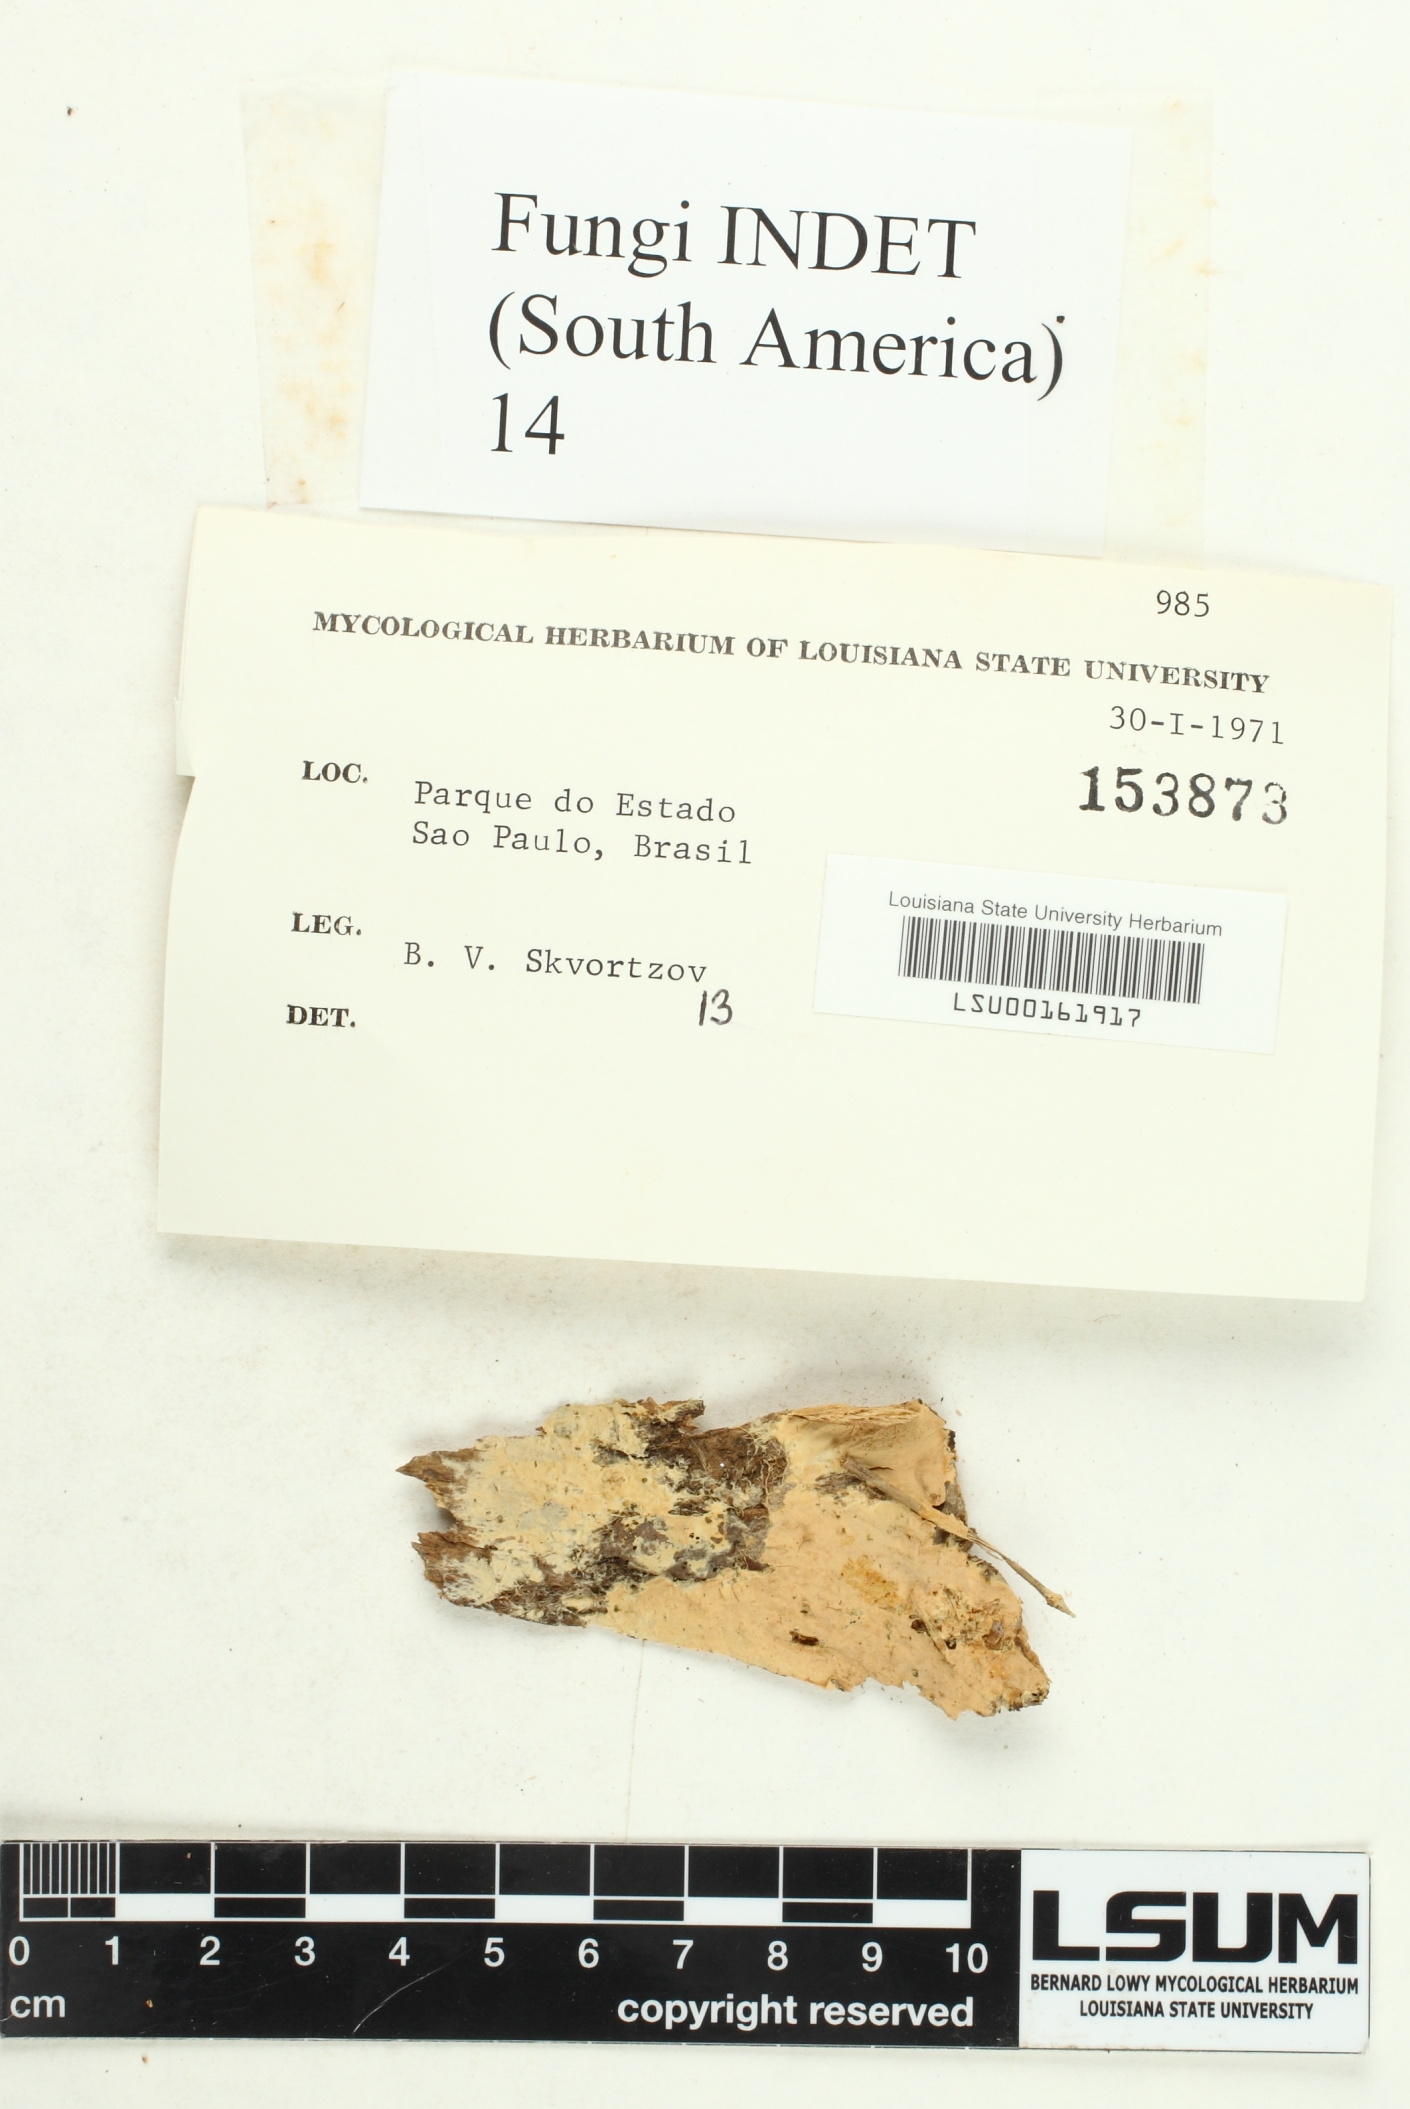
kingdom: Fungi
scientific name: Fungi
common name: Fungi
